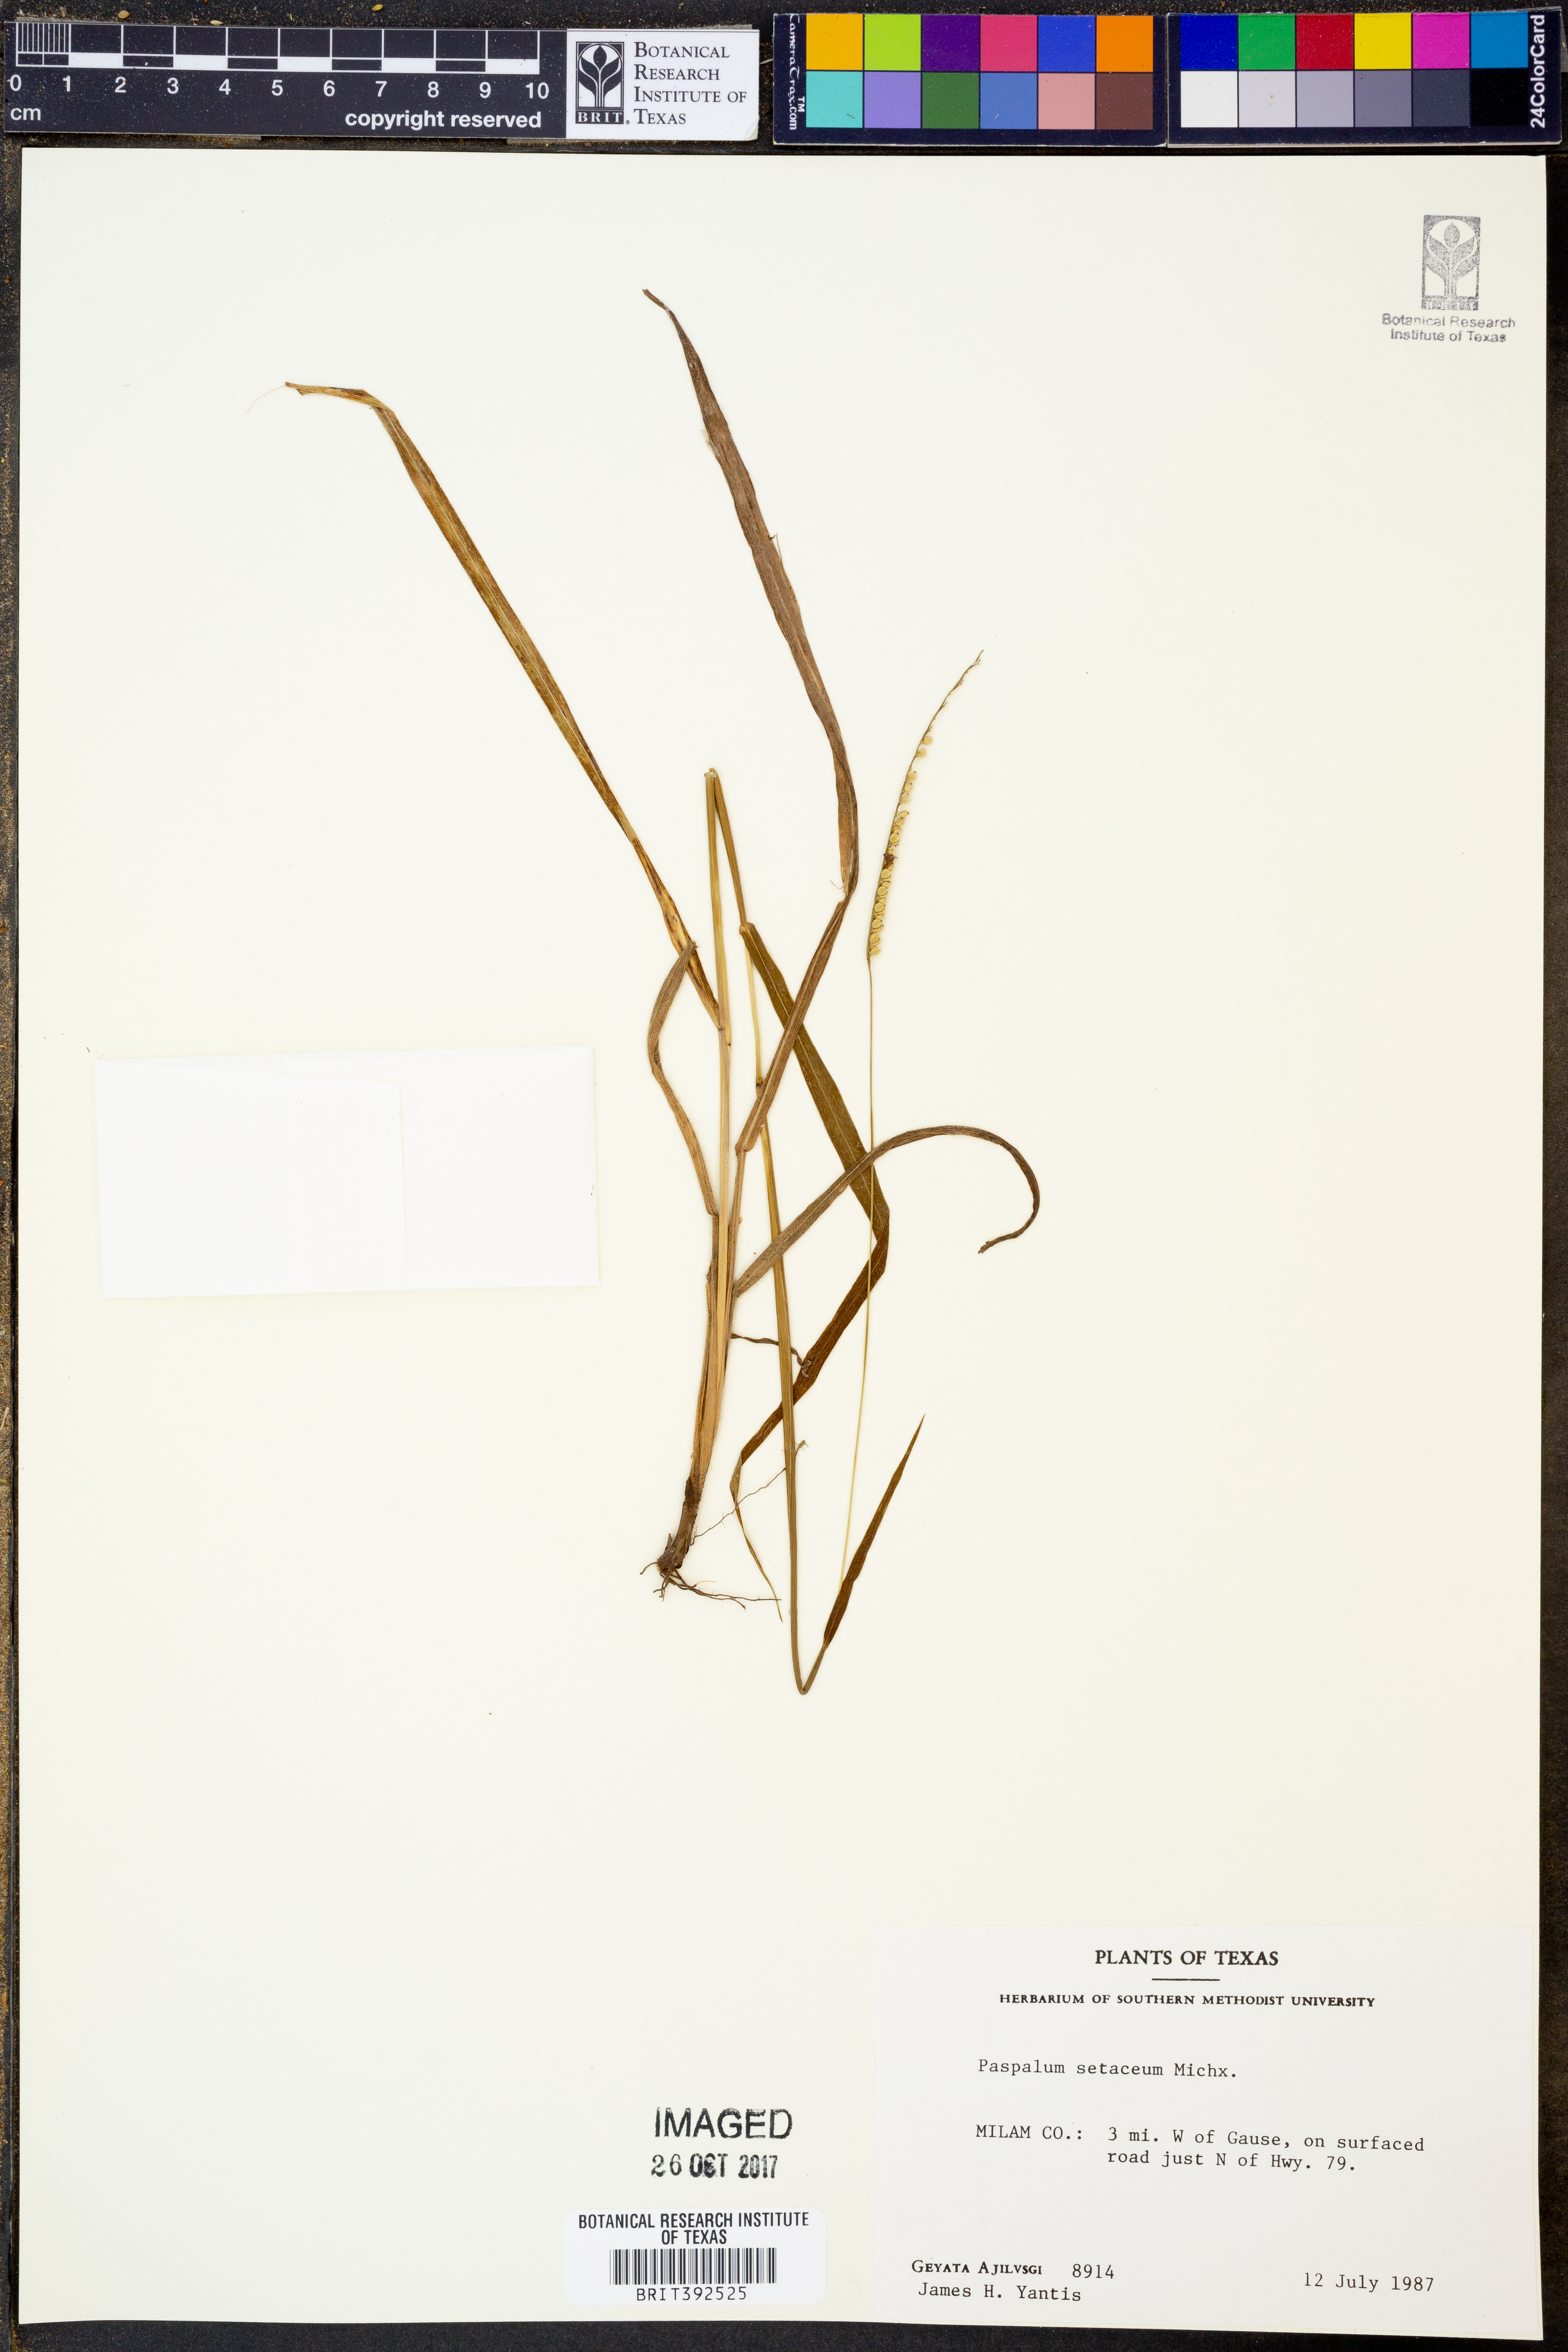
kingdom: Plantae
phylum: Tracheophyta
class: Liliopsida
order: Poales
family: Poaceae
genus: Paspalum
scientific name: Paspalum setaceum
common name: Slender paspalum
